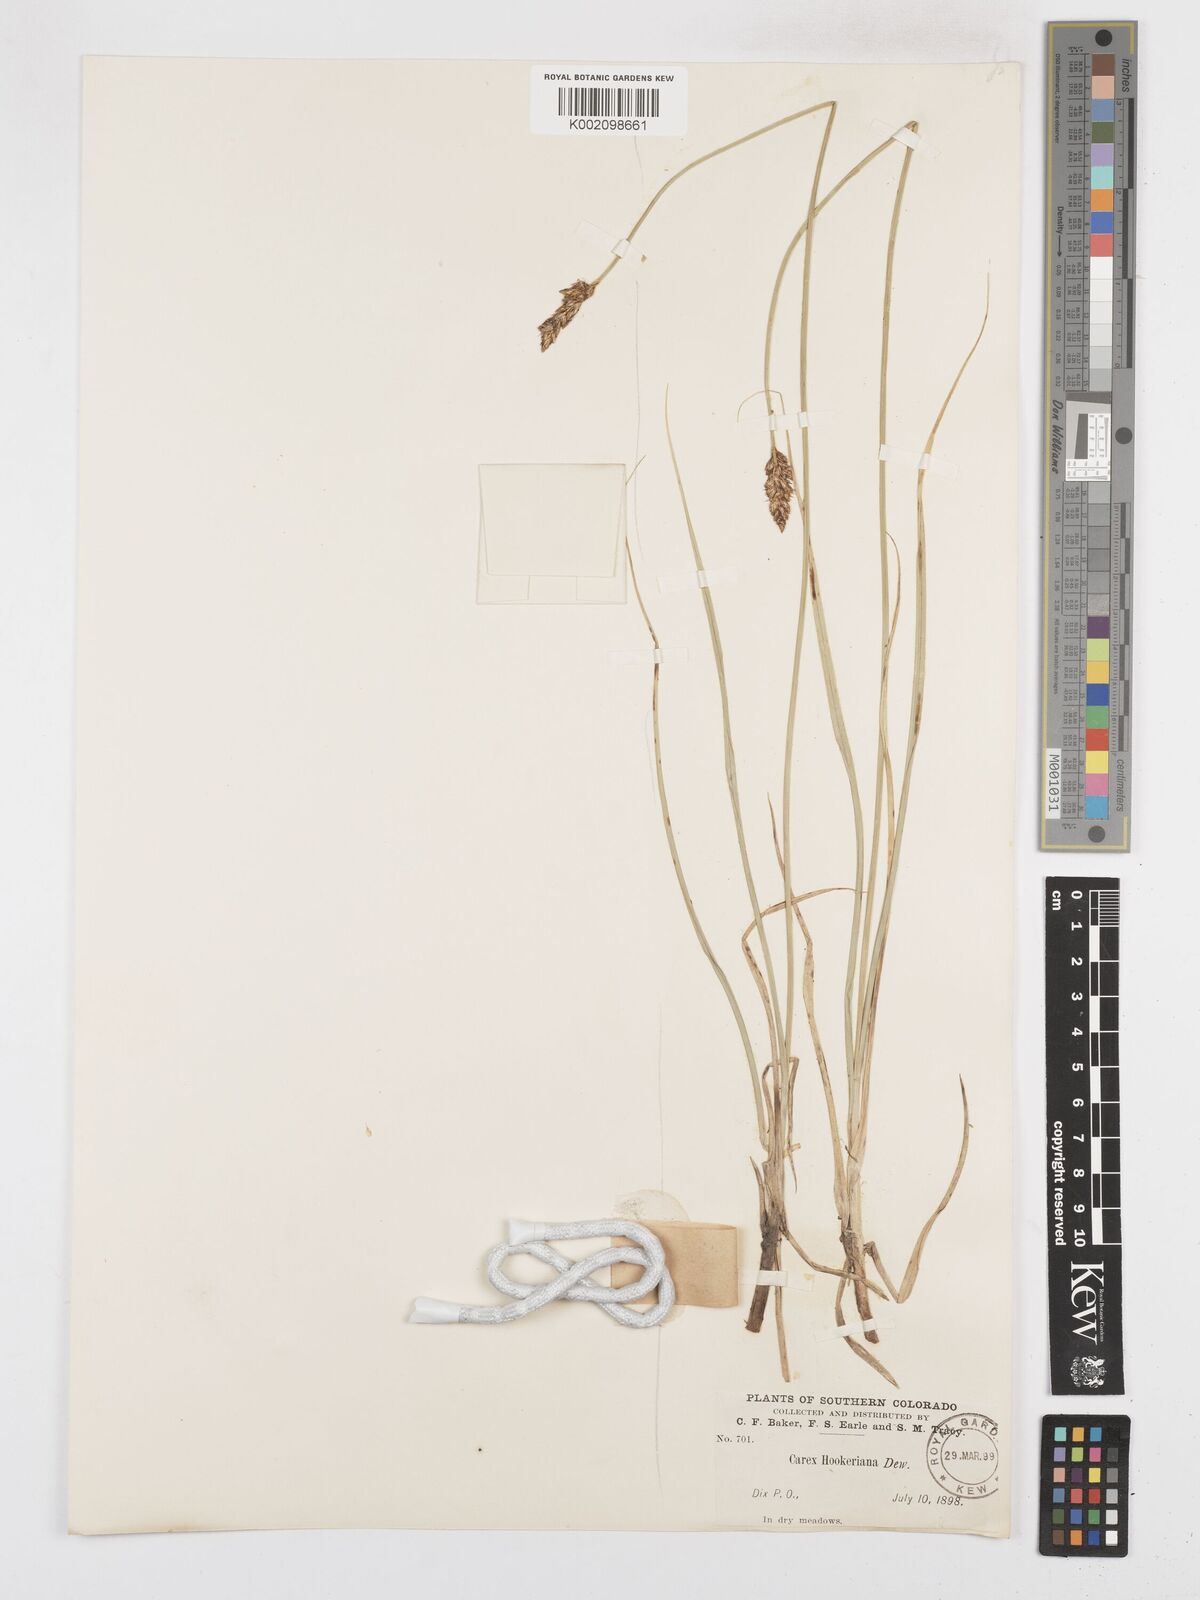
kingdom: Plantae
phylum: Tracheophyta
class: Liliopsida
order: Poales
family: Cyperaceae
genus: Carex
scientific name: Carex hookeriana
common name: Hooker's sedge
